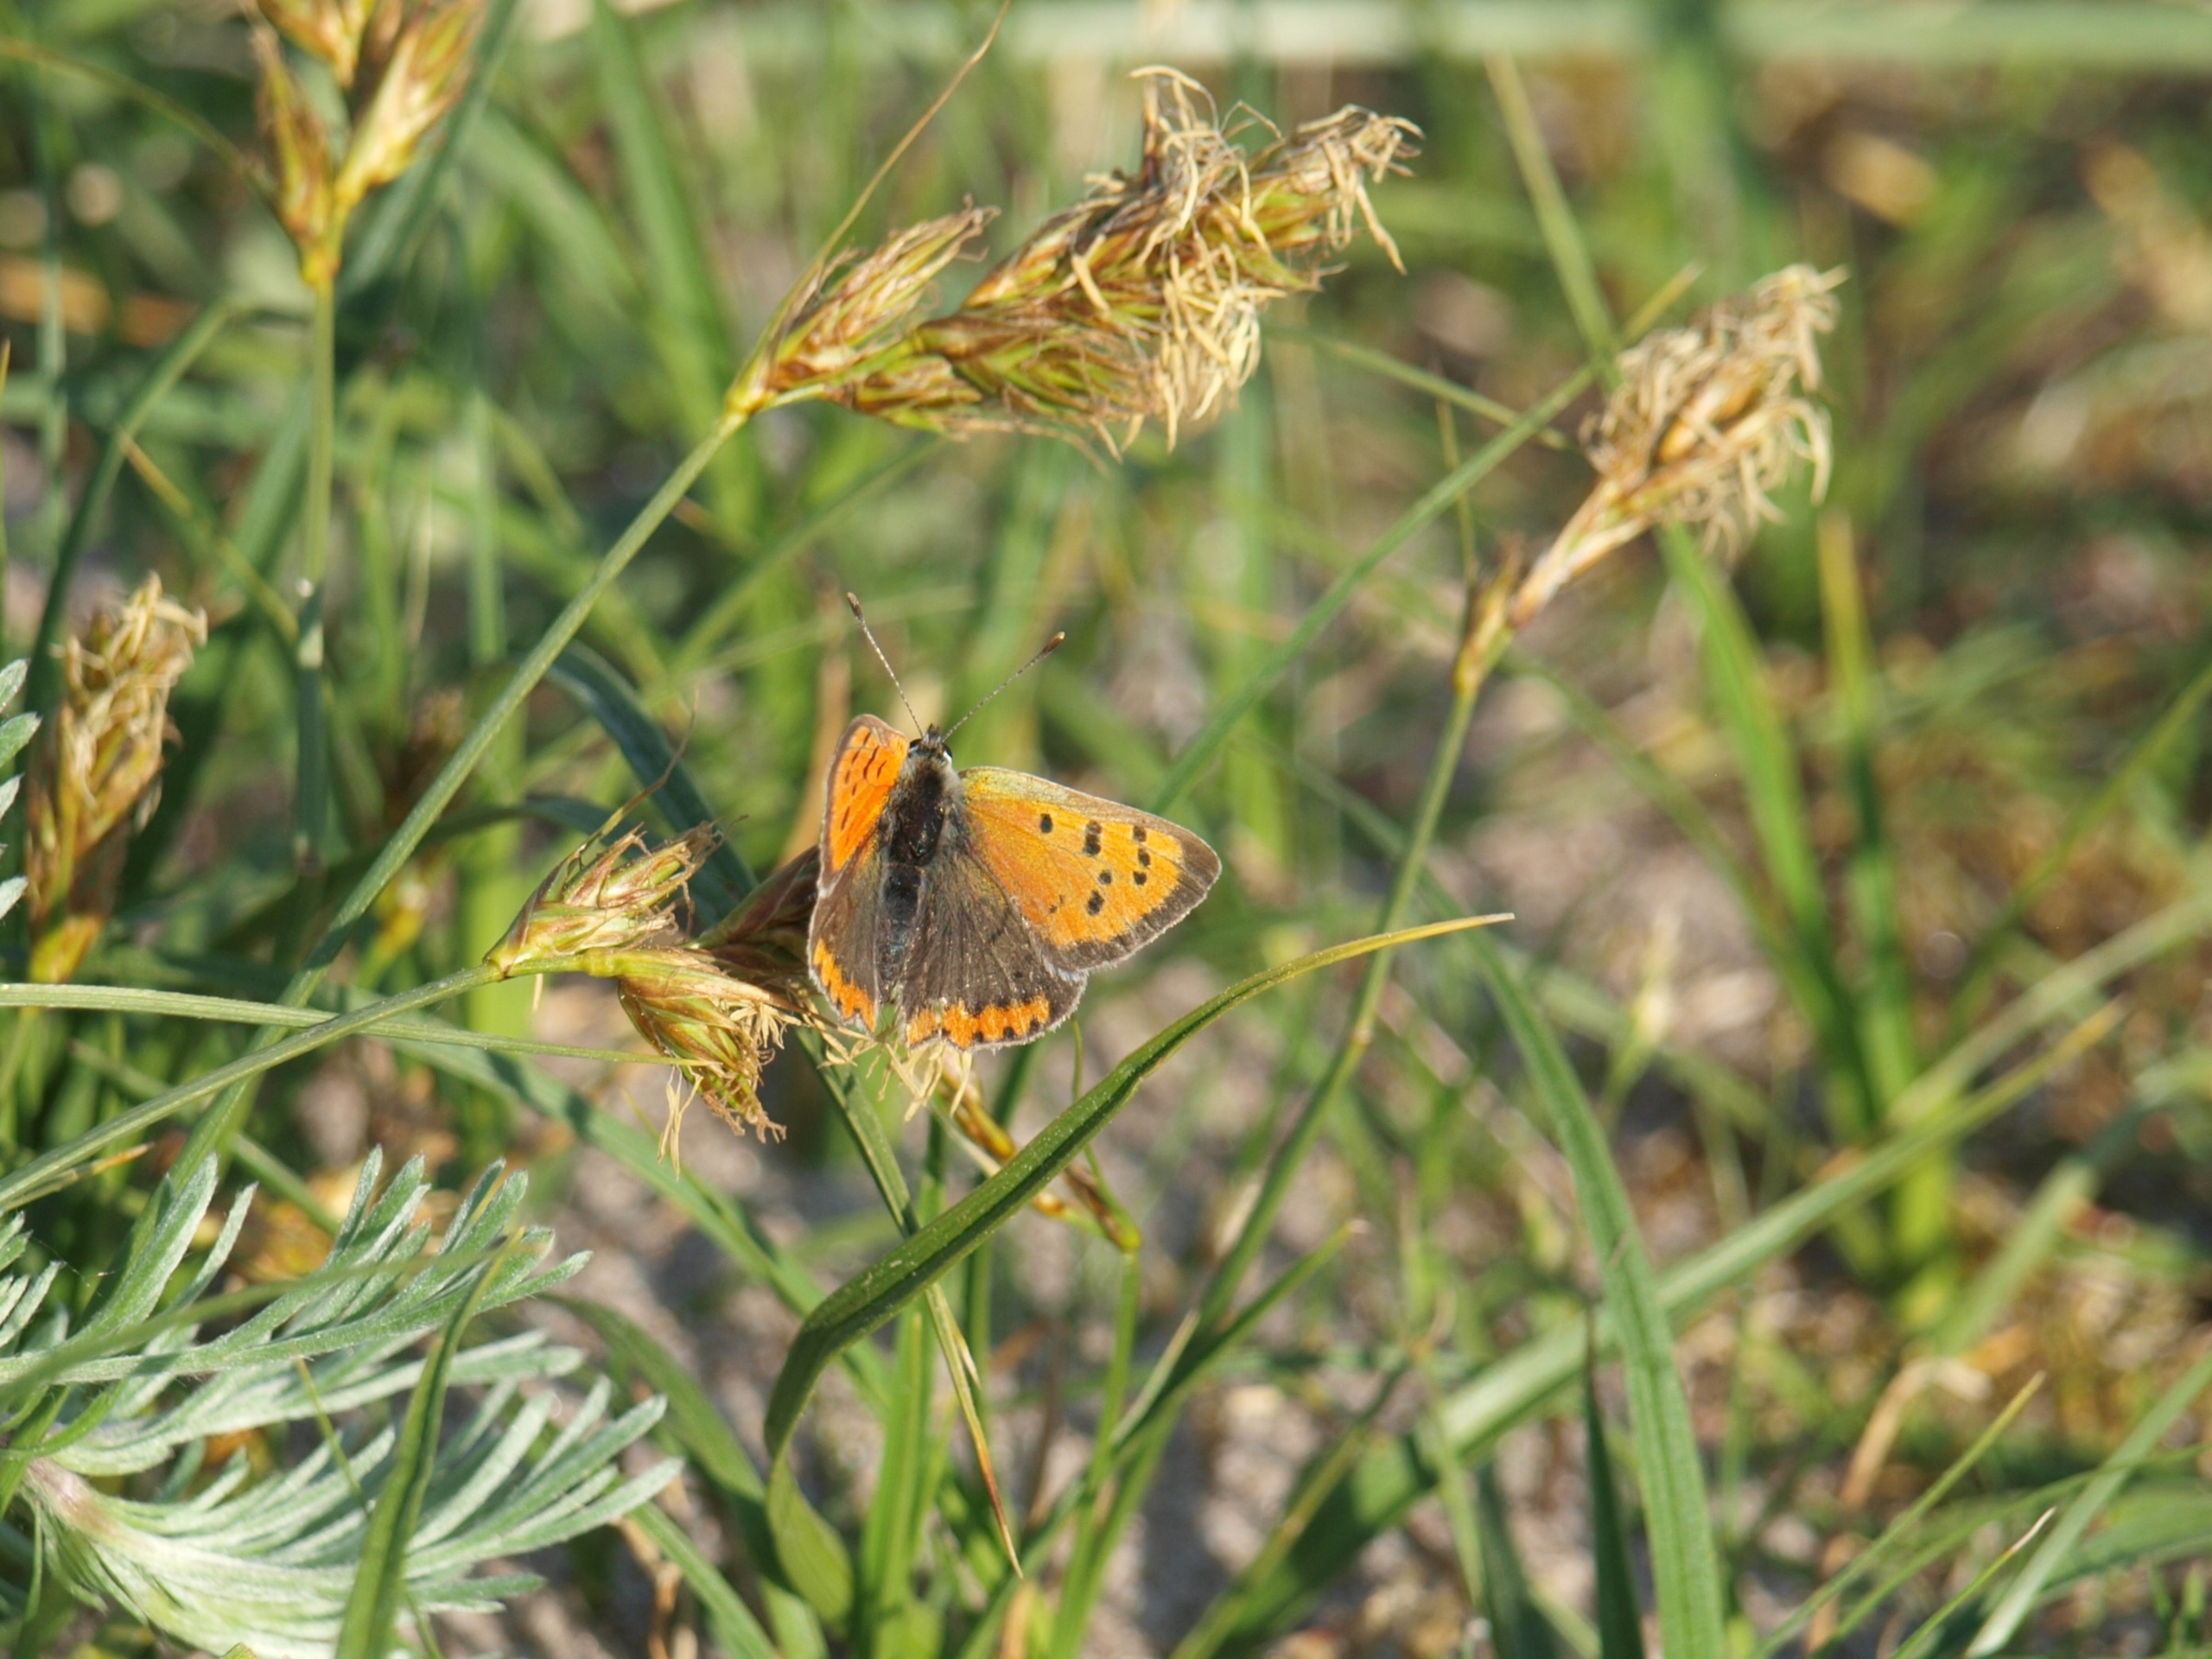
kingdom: Animalia
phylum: Arthropoda
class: Insecta
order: Lepidoptera
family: Lycaenidae
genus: Lycaena
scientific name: Lycaena phlaeas
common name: Lille ildfugl
